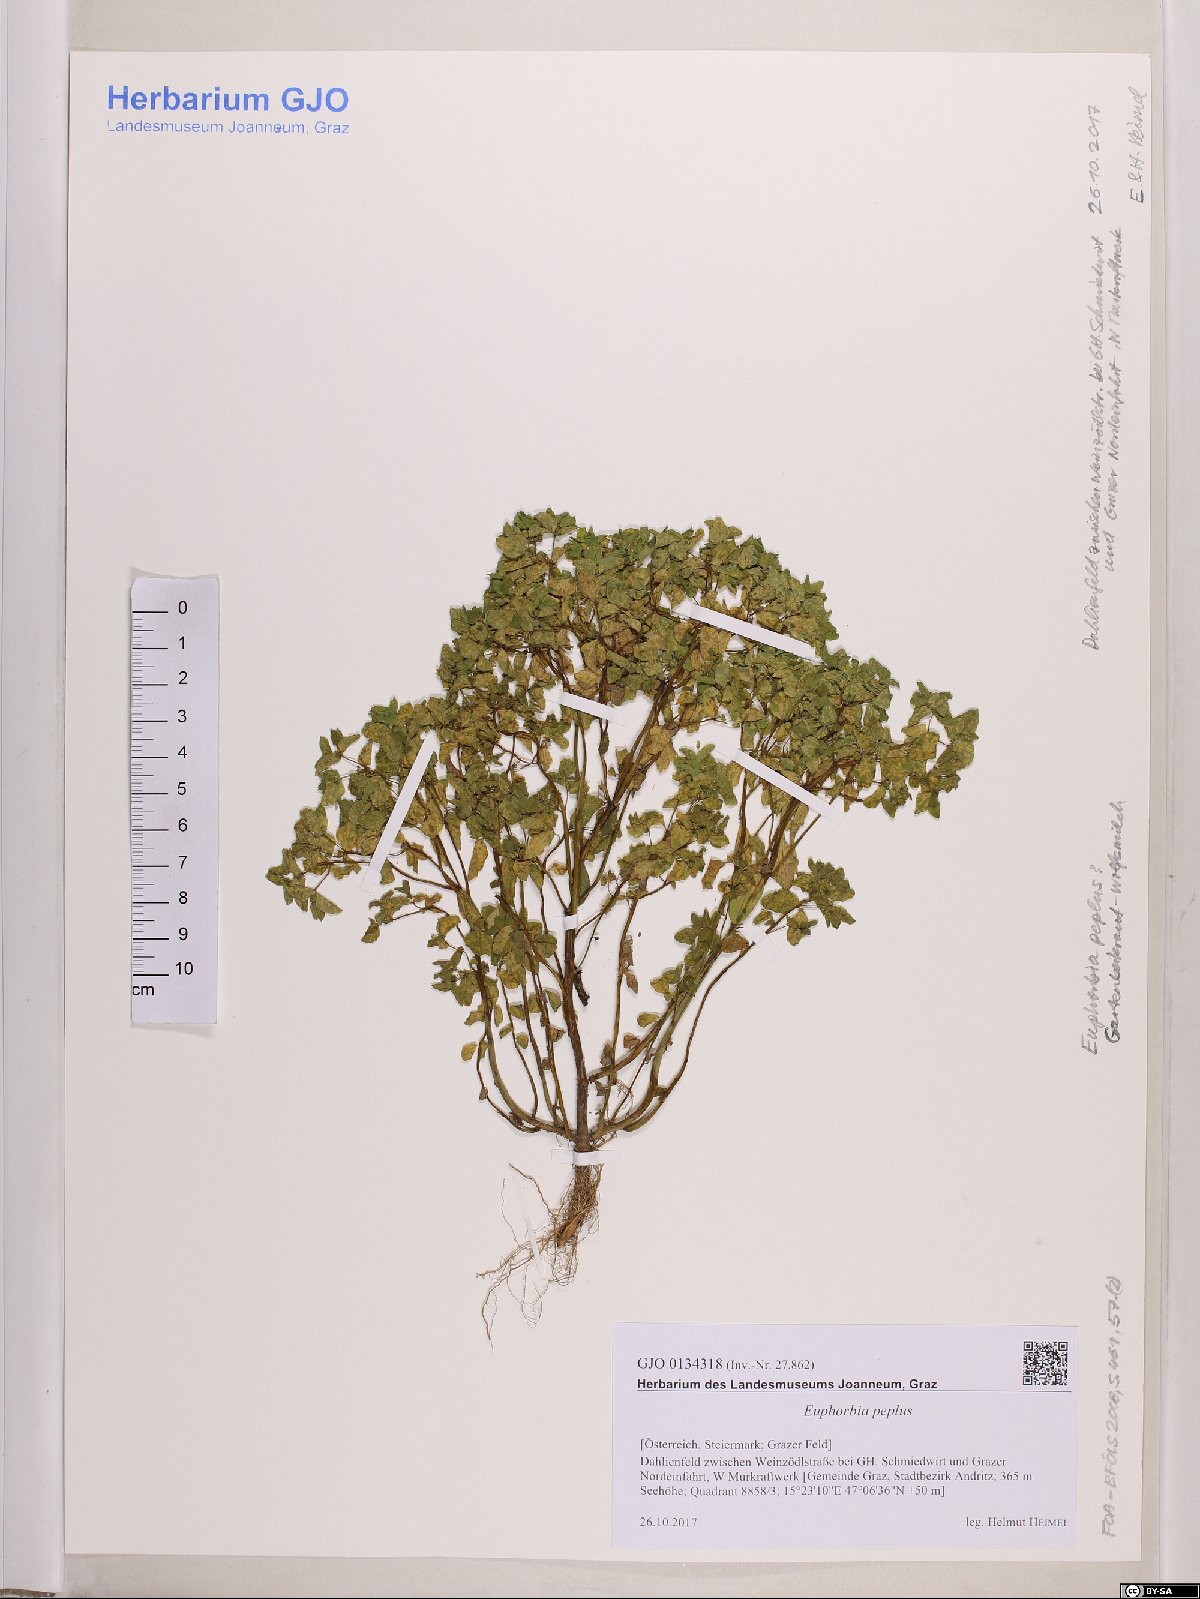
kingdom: Plantae
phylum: Tracheophyta
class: Magnoliopsida
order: Malpighiales
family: Euphorbiaceae
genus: Euphorbia
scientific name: Euphorbia peplus
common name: Petty spurge
